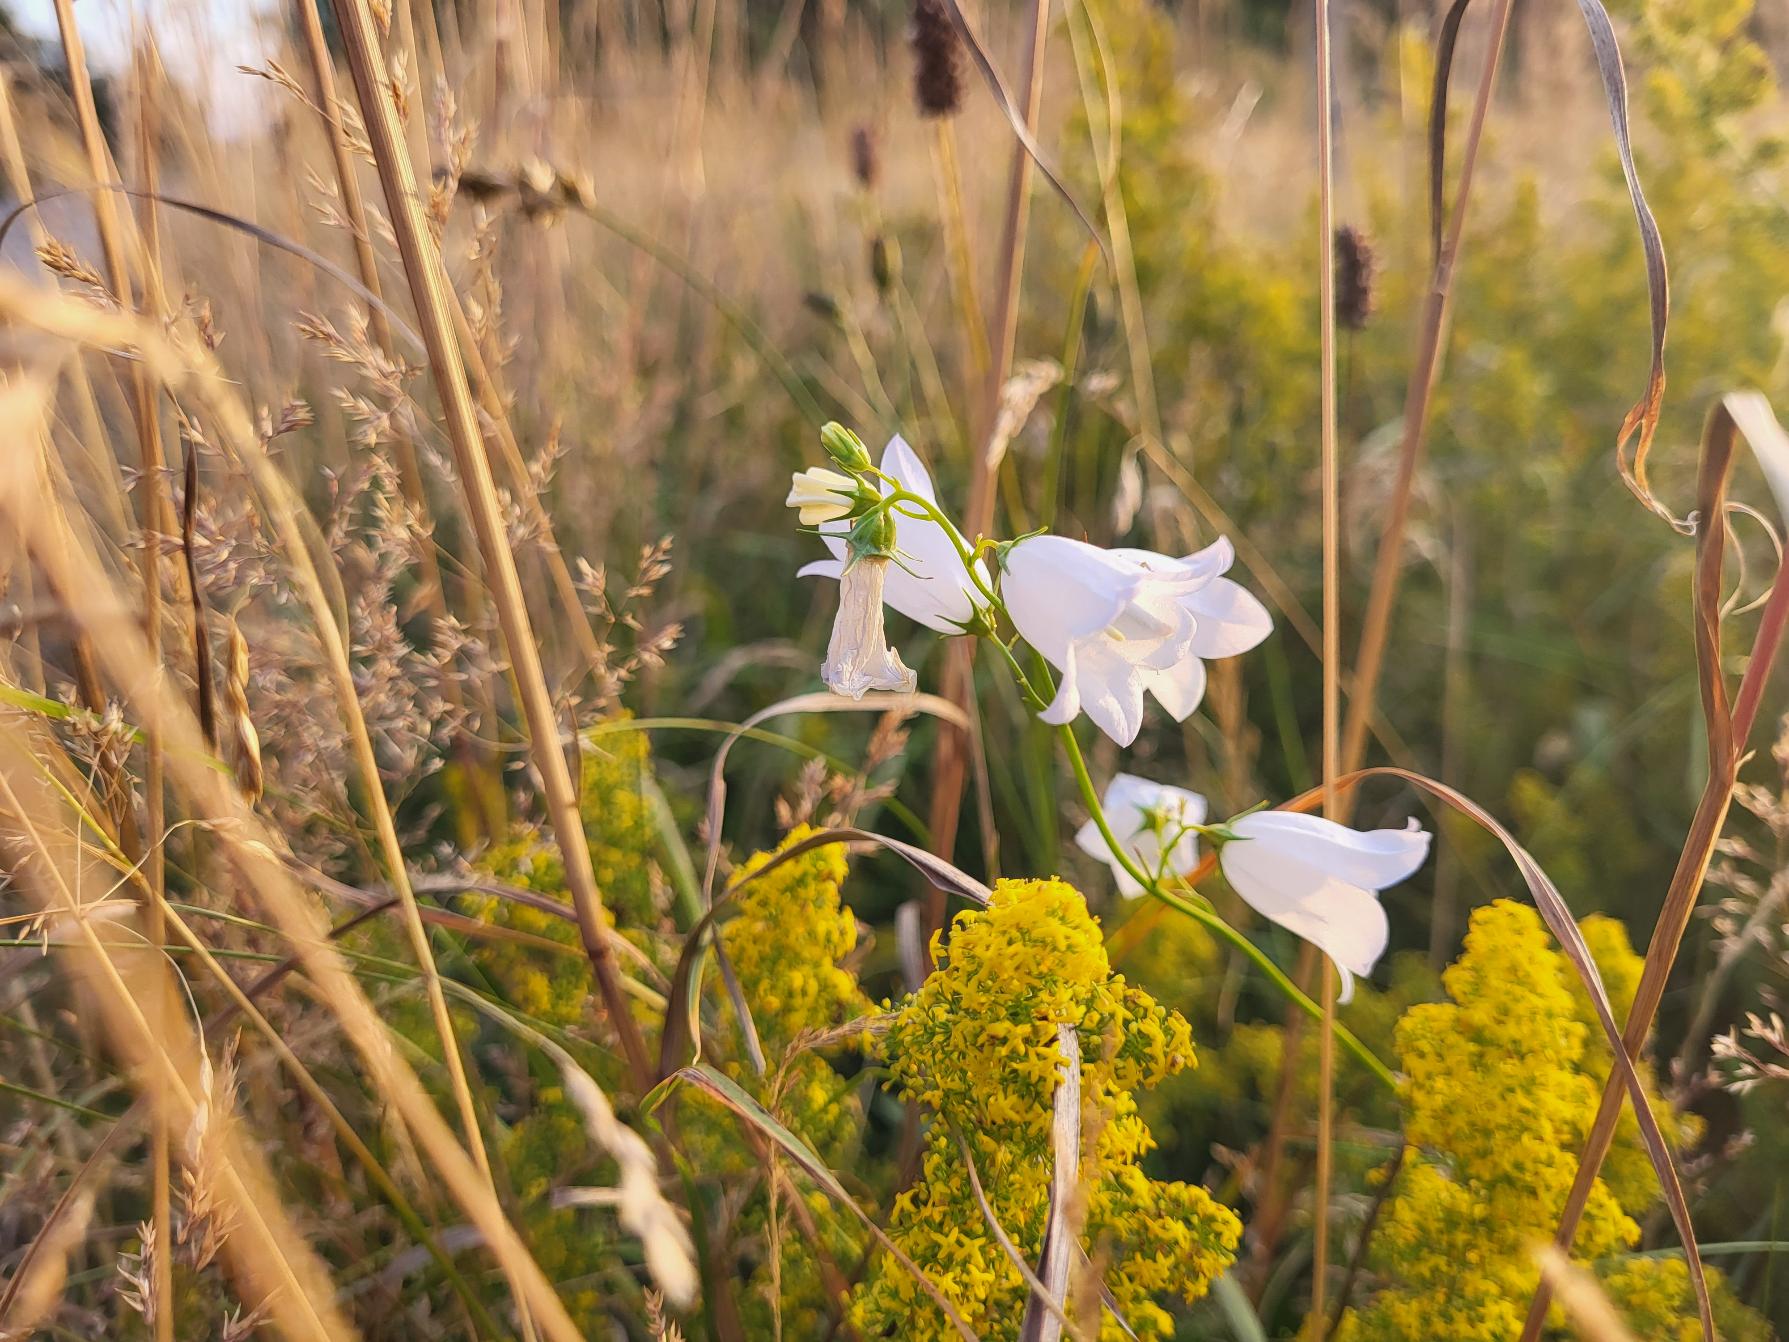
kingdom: Plantae
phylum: Tracheophyta
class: Magnoliopsida
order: Asterales
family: Campanulaceae
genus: Campanula
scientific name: Campanula rotundifolia
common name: Liden klokke
